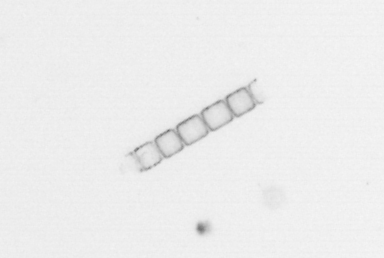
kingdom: Chromista
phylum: Ochrophyta
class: Bacillariophyceae
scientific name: Bacillariophyceae
